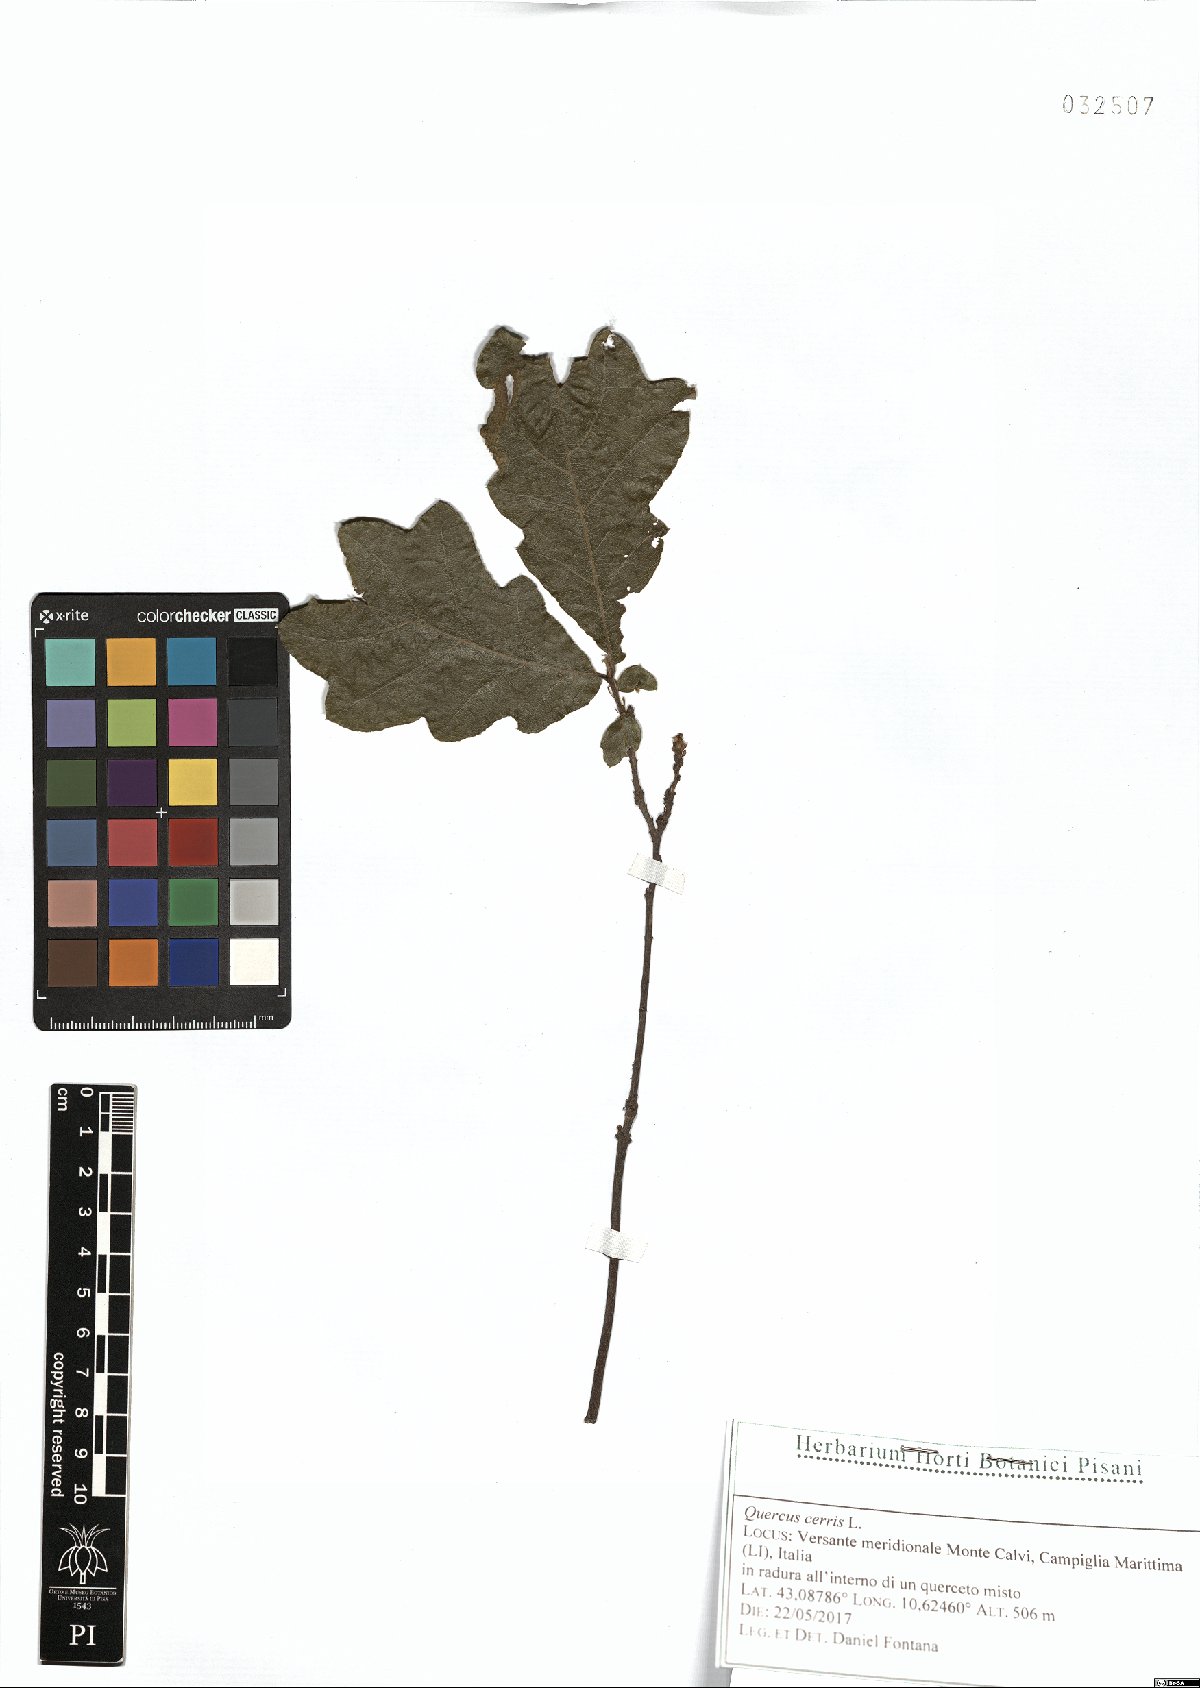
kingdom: Plantae
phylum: Tracheophyta
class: Magnoliopsida
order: Fagales
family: Fagaceae
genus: Quercus
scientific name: Quercus cerris
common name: Turkey oak
